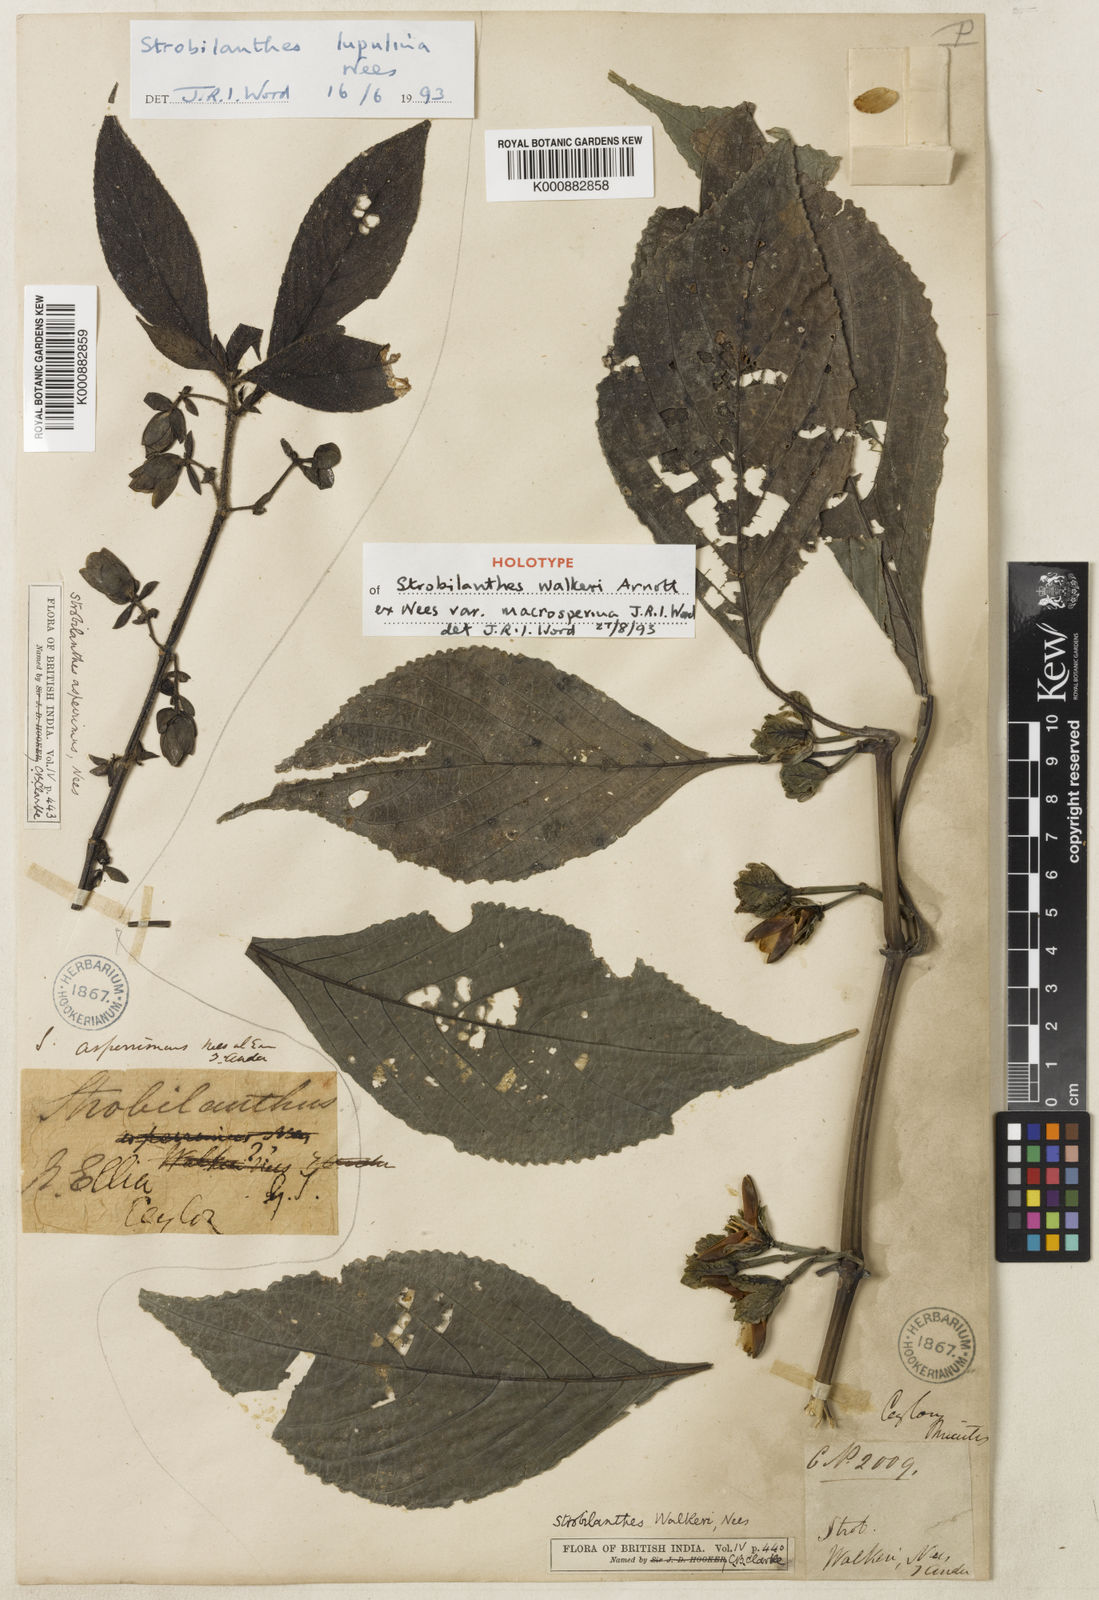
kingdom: Plantae
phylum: Tracheophyta
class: Magnoliopsida
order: Lamiales
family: Acanthaceae
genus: Strobilanthes
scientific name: Strobilanthes walkeri
